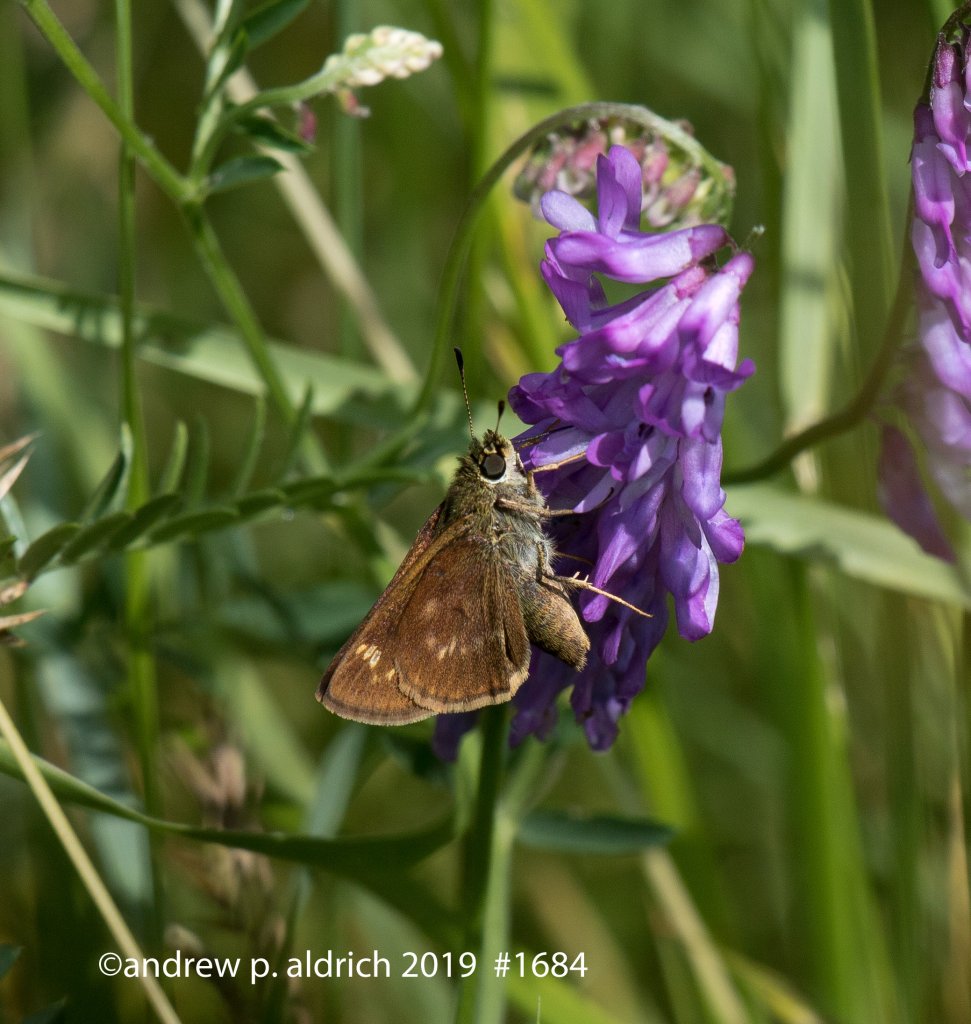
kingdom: Animalia
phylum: Arthropoda
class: Insecta
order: Lepidoptera
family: Hesperiidae
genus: Vernia
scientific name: Vernia verna
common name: Little Glassywing
